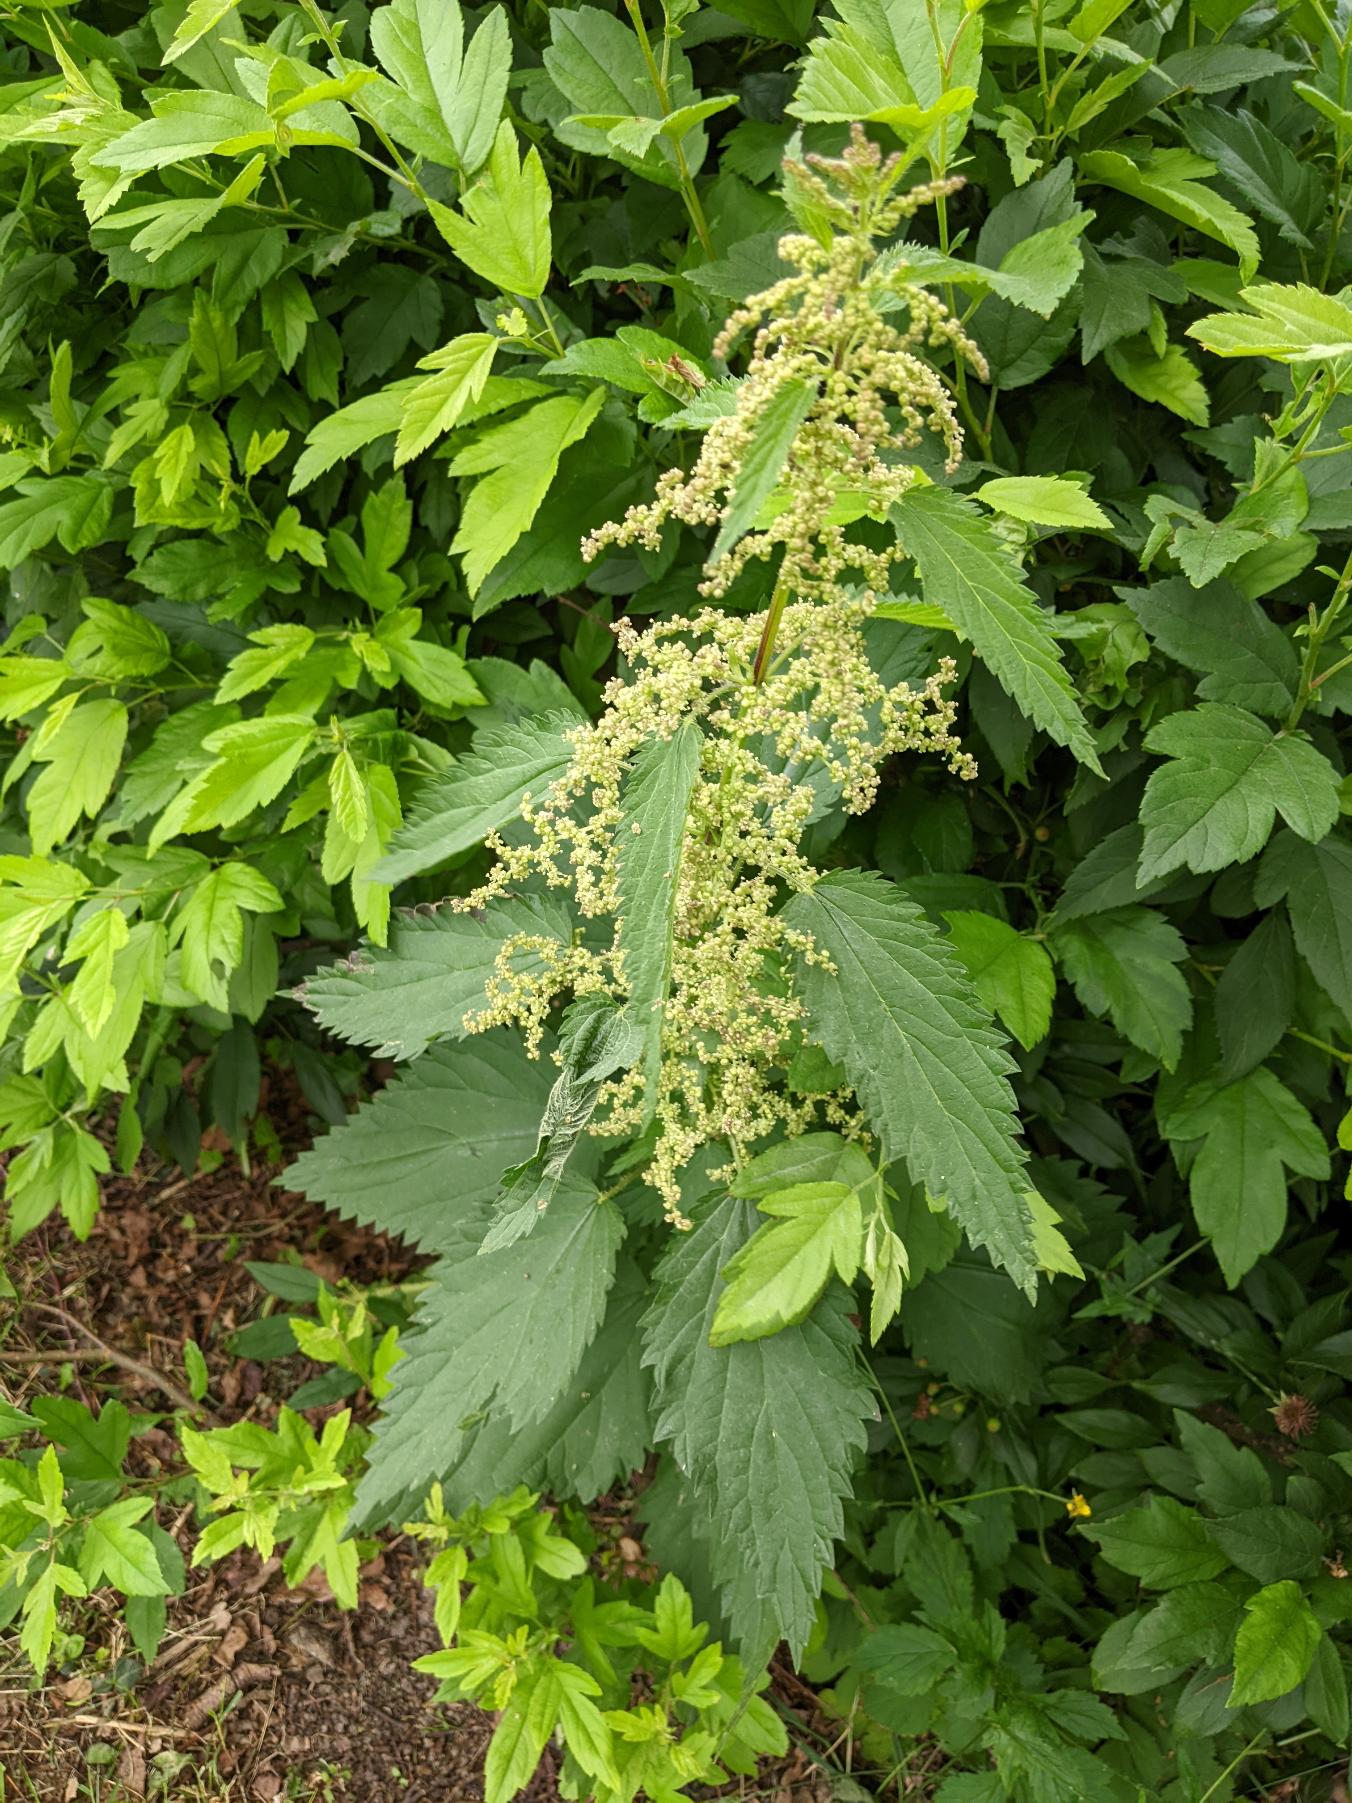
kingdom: Plantae
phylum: Tracheophyta
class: Magnoliopsida
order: Rosales
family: Urticaceae
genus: Urtica
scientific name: Urtica dioica
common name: Stor nælde
